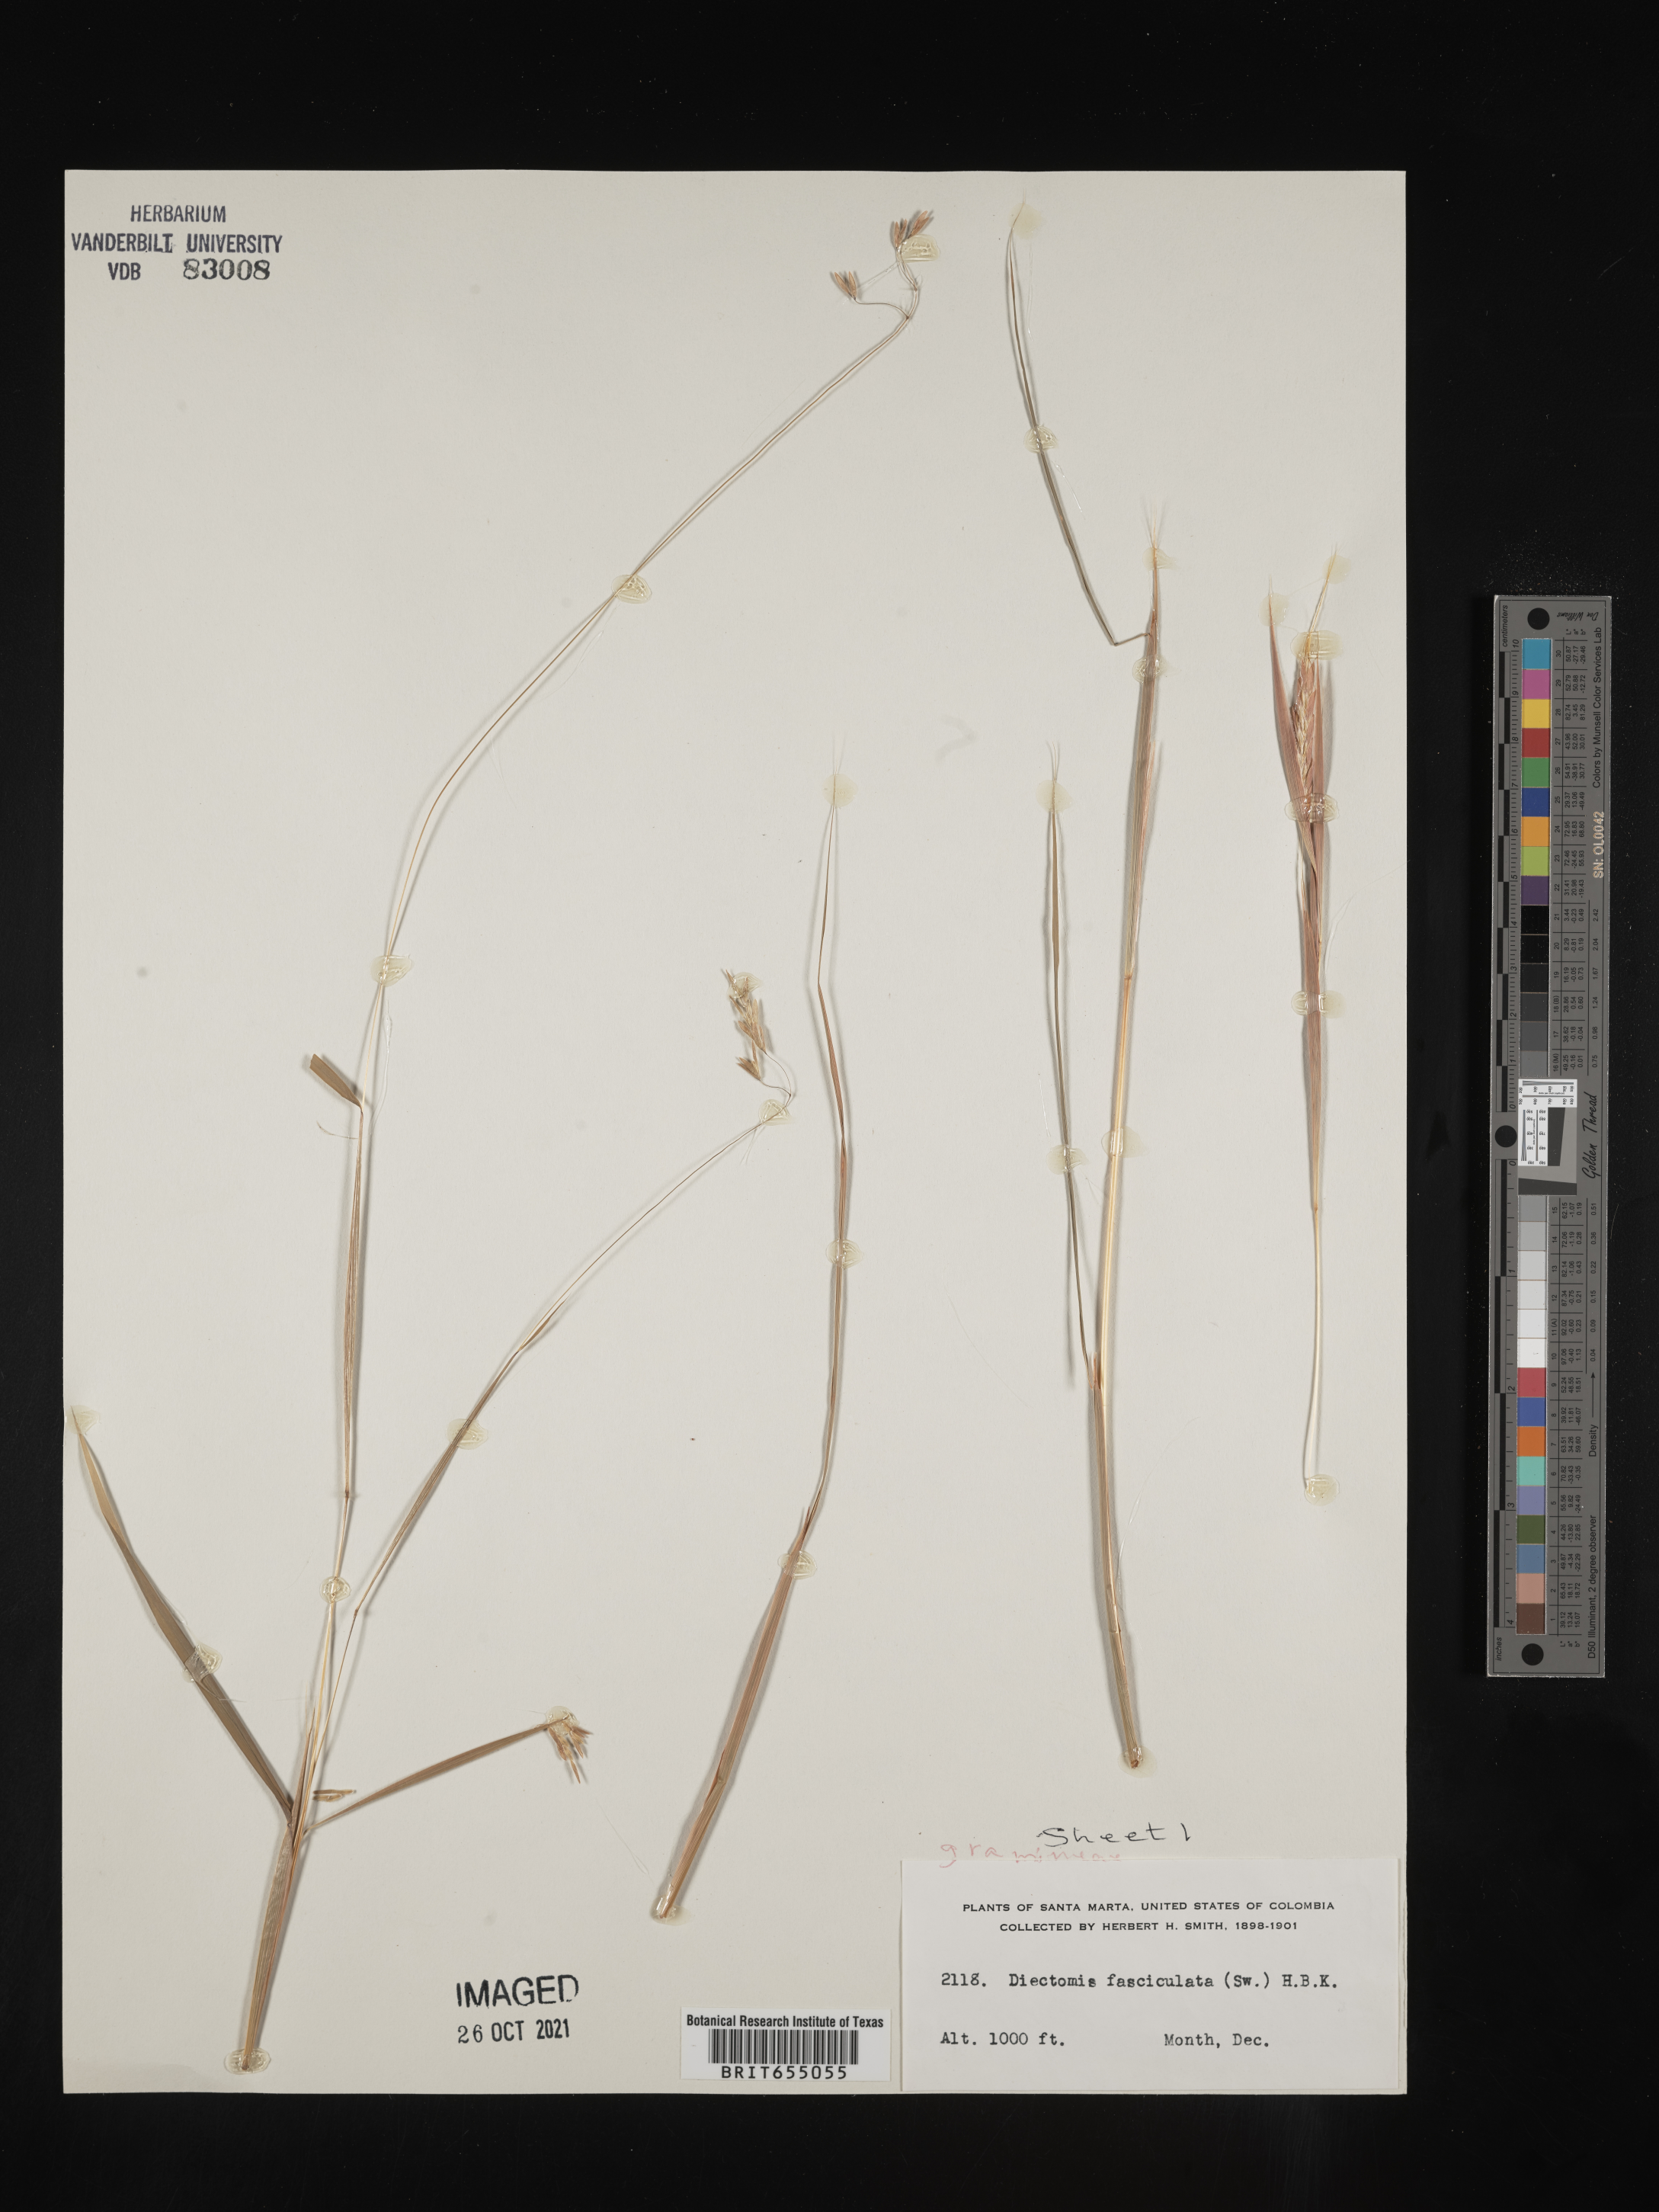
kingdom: Plantae
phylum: Tracheophyta
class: Liliopsida
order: Poales
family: Poaceae
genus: Diectomis
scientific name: Diectomis
